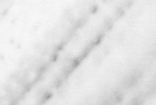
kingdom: Animalia
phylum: Chordata
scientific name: Chordata
